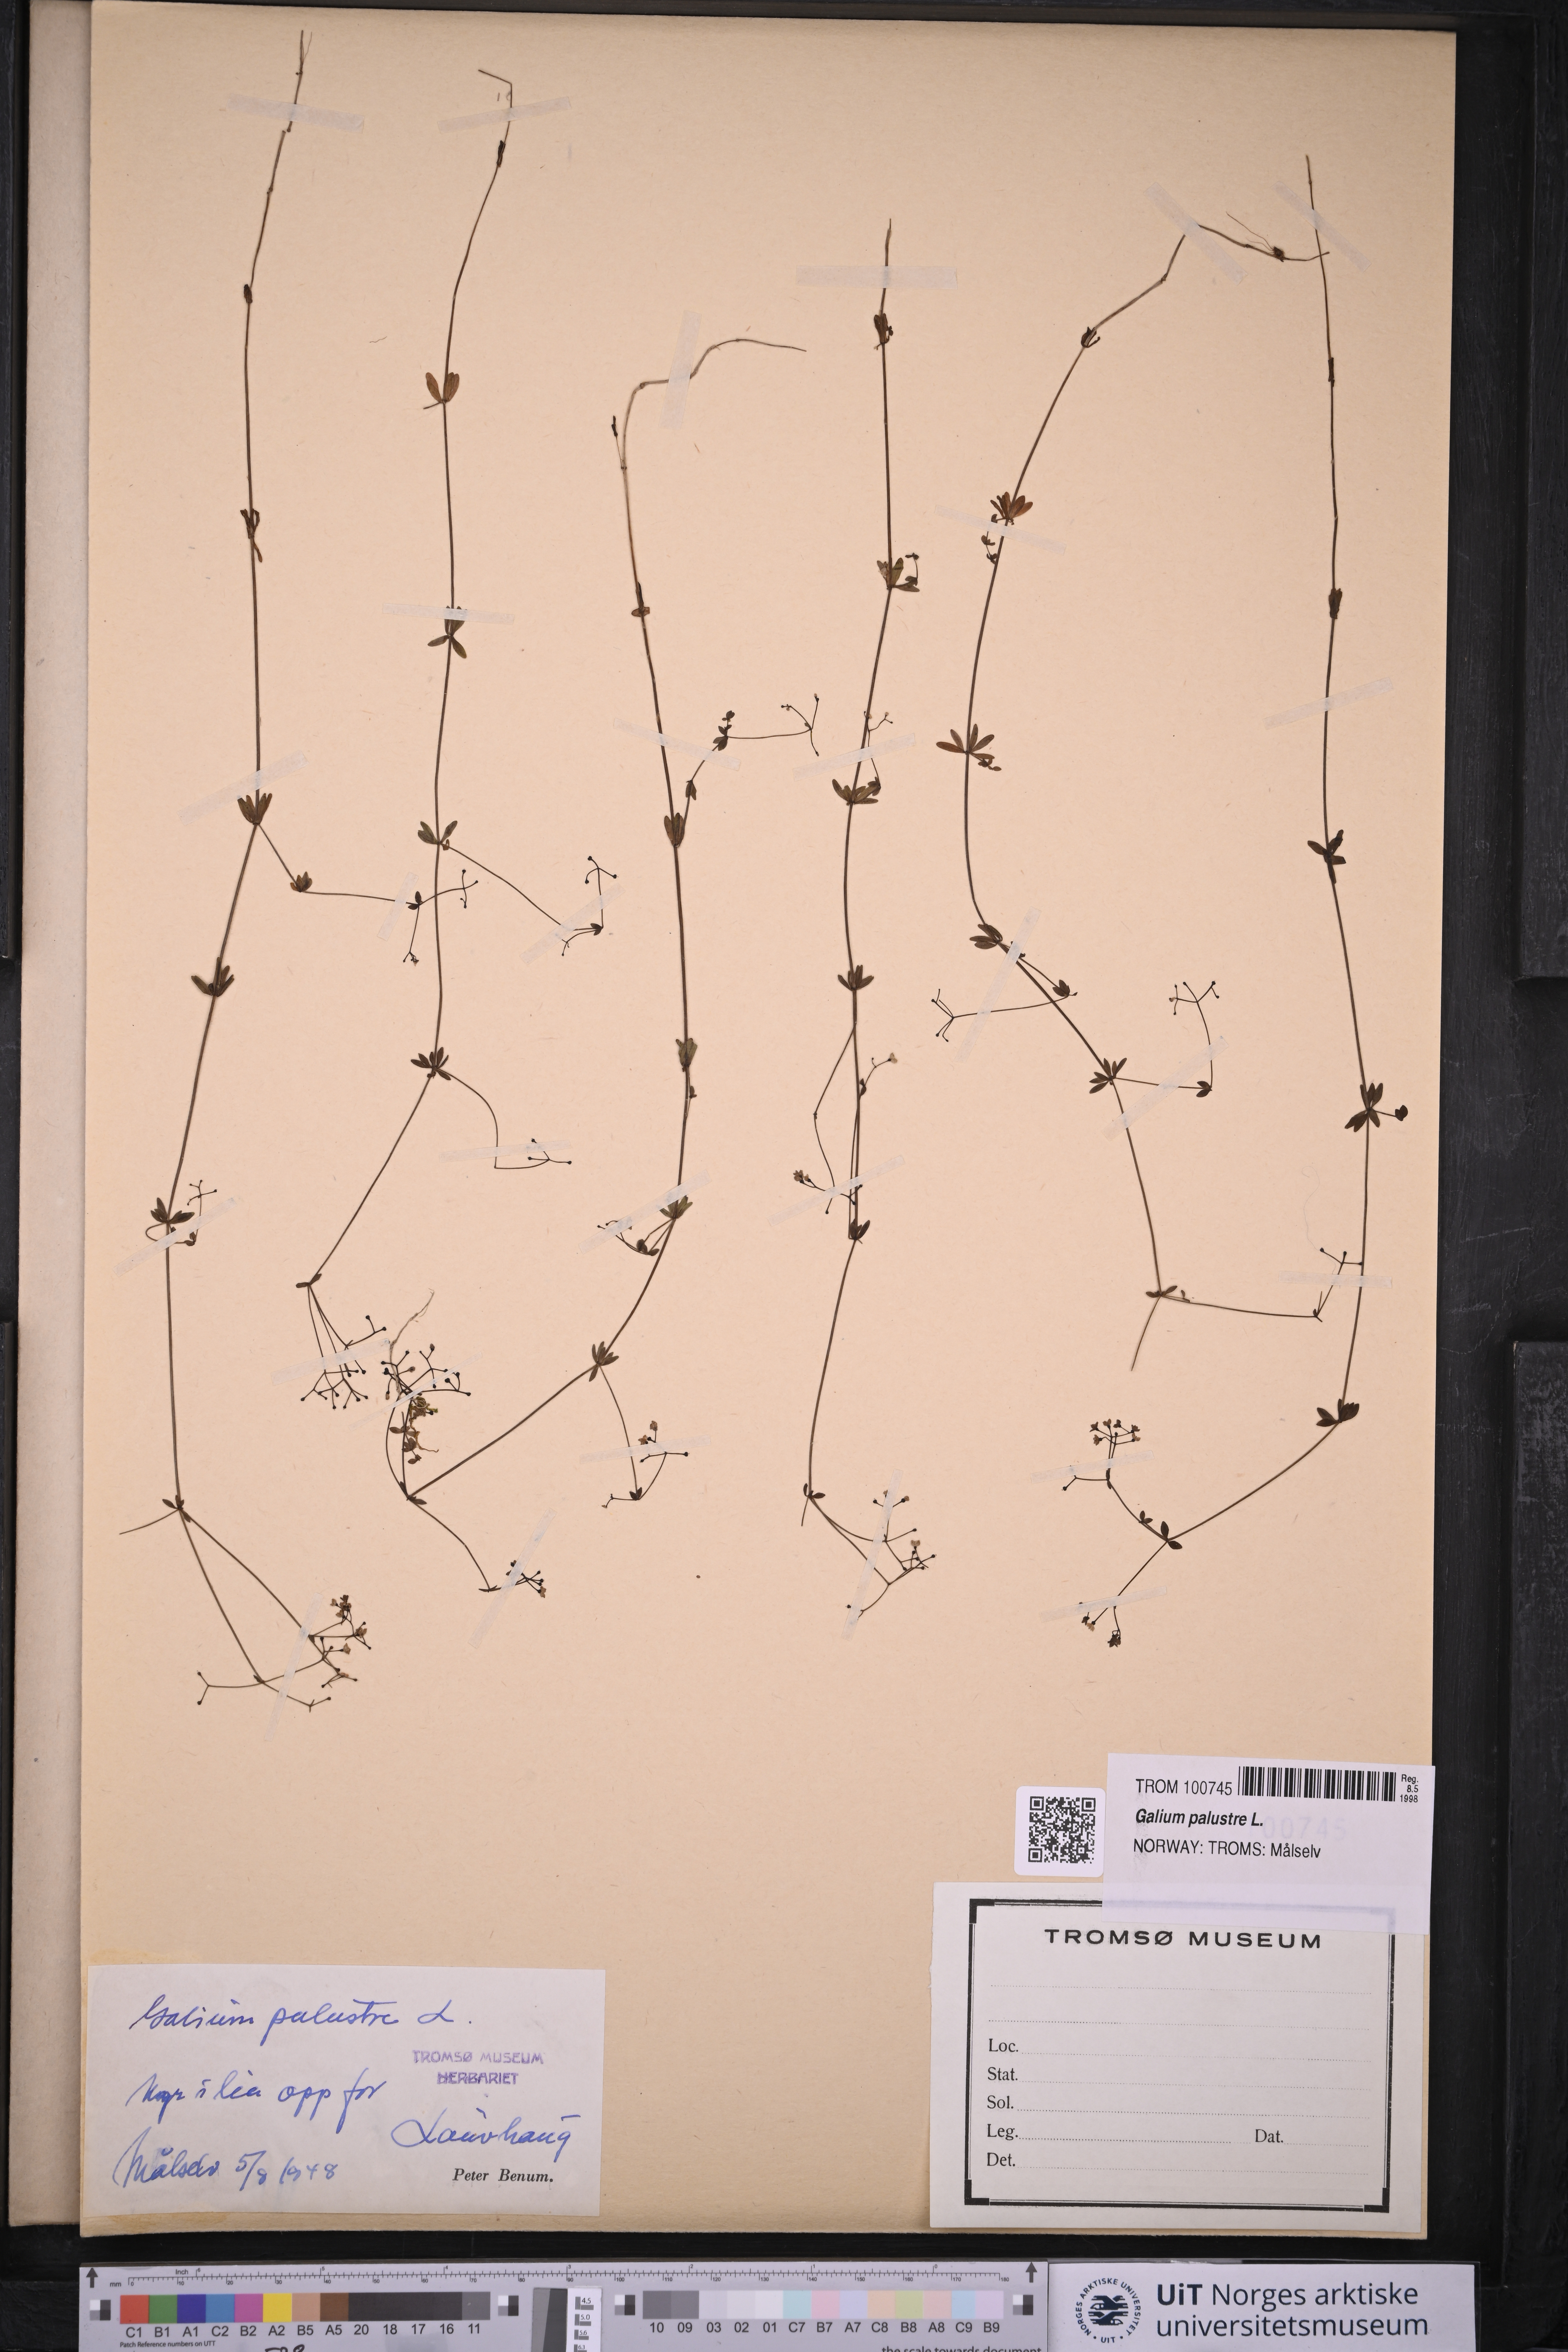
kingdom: Plantae
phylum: Tracheophyta
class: Magnoliopsida
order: Gentianales
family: Rubiaceae
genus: Galium
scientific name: Galium palustre
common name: Common marsh-bedstraw
